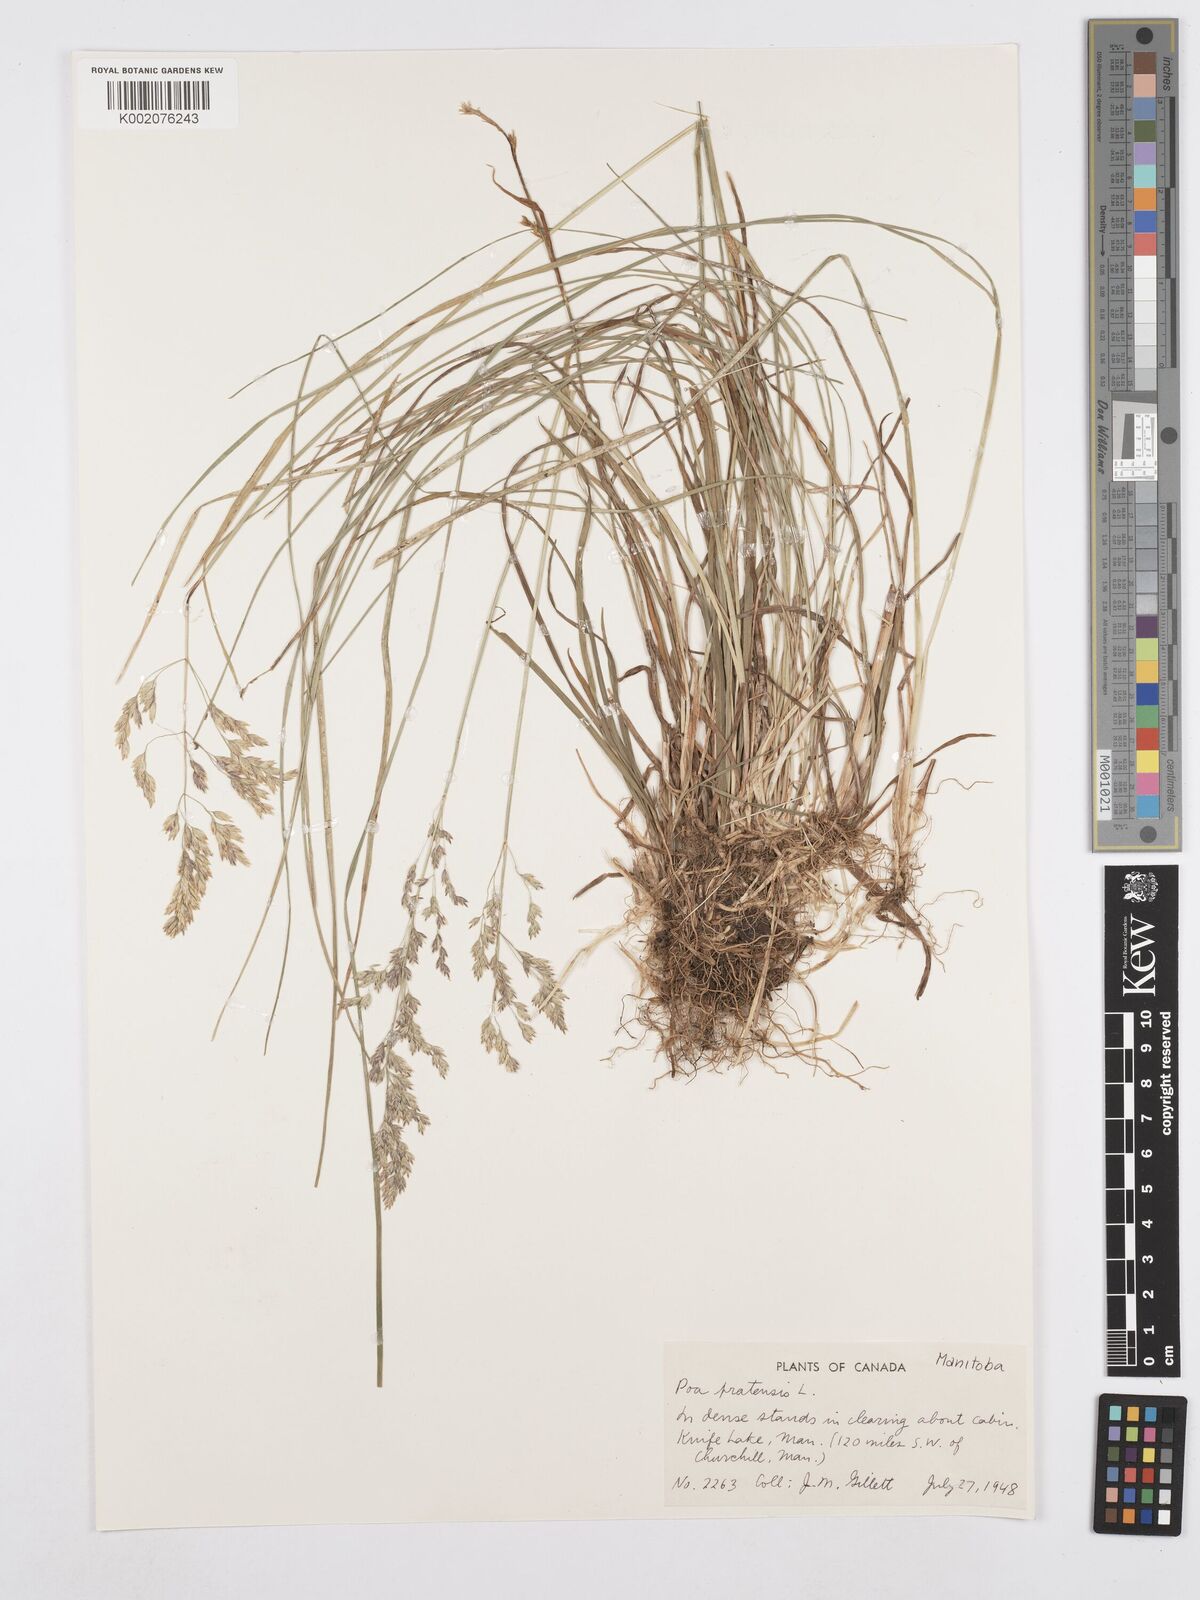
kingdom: Plantae
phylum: Tracheophyta
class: Liliopsida
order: Poales
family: Poaceae
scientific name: Poaceae
